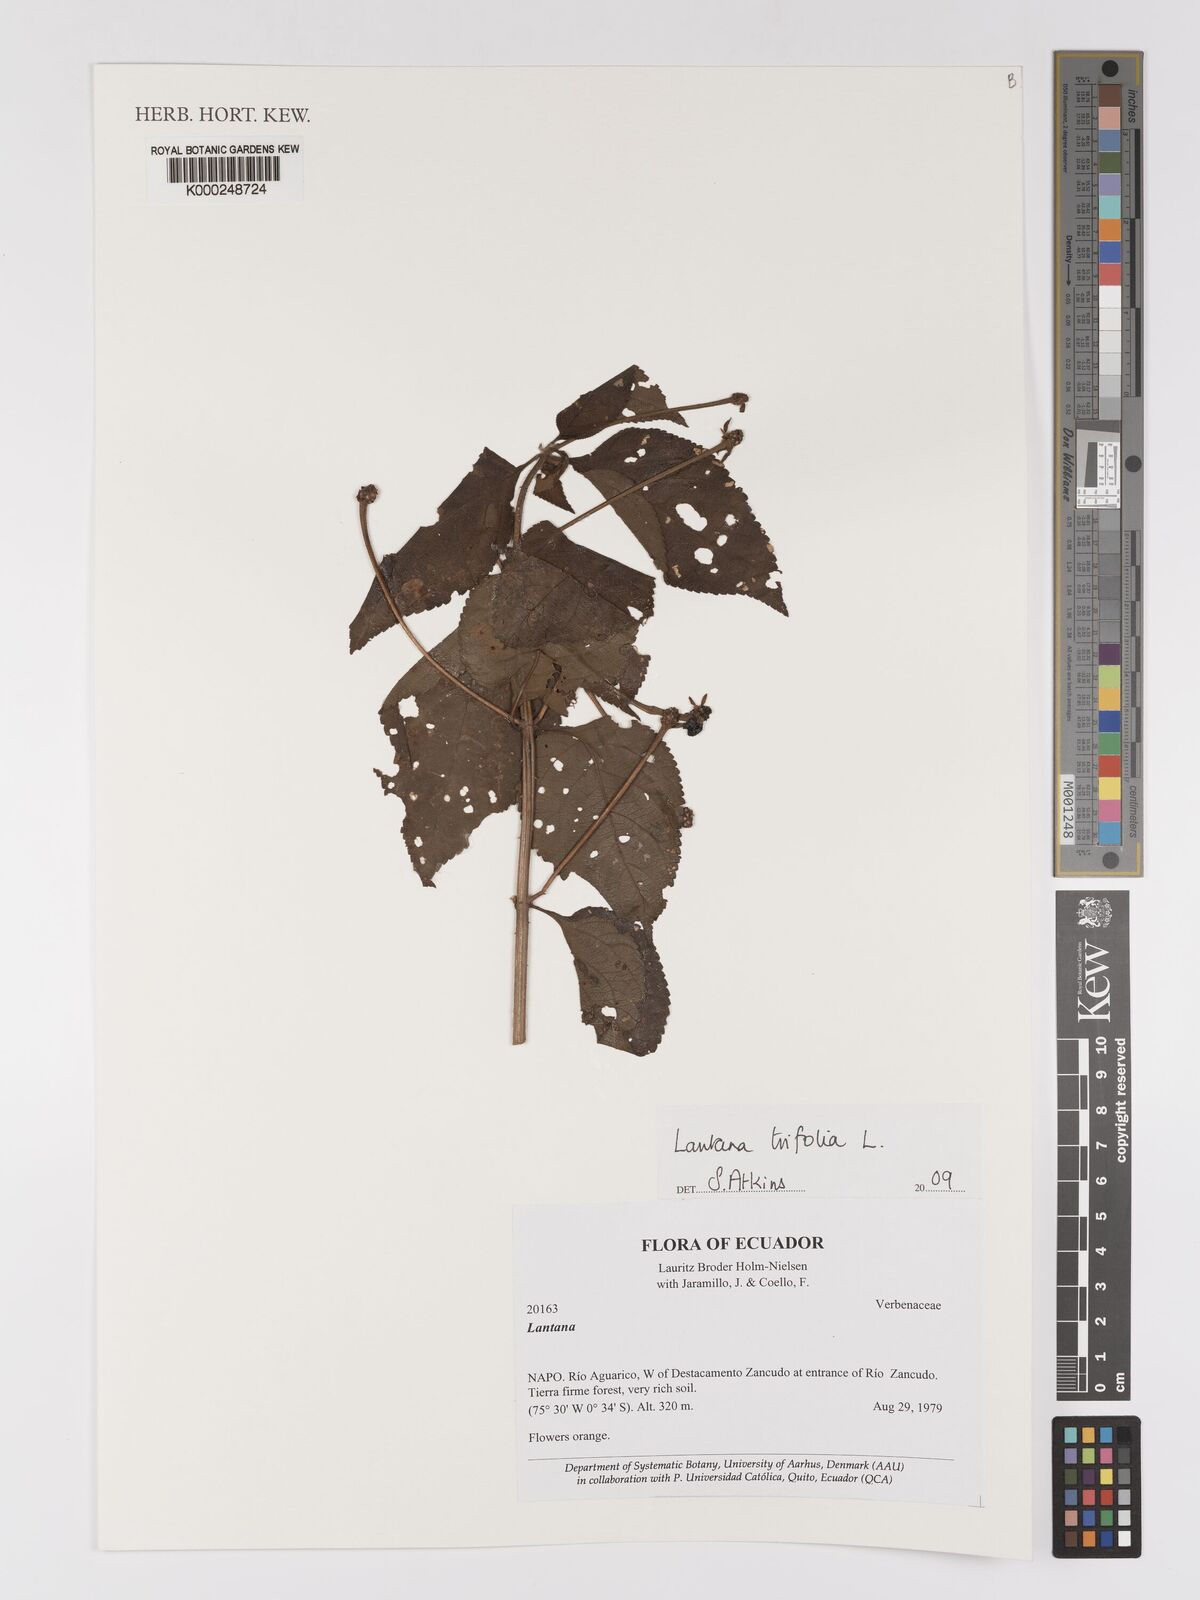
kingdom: Plantae
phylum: Tracheophyta
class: Magnoliopsida
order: Lamiales
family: Verbenaceae
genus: Lantana
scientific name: Lantana trifolia
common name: Sweet-sage
